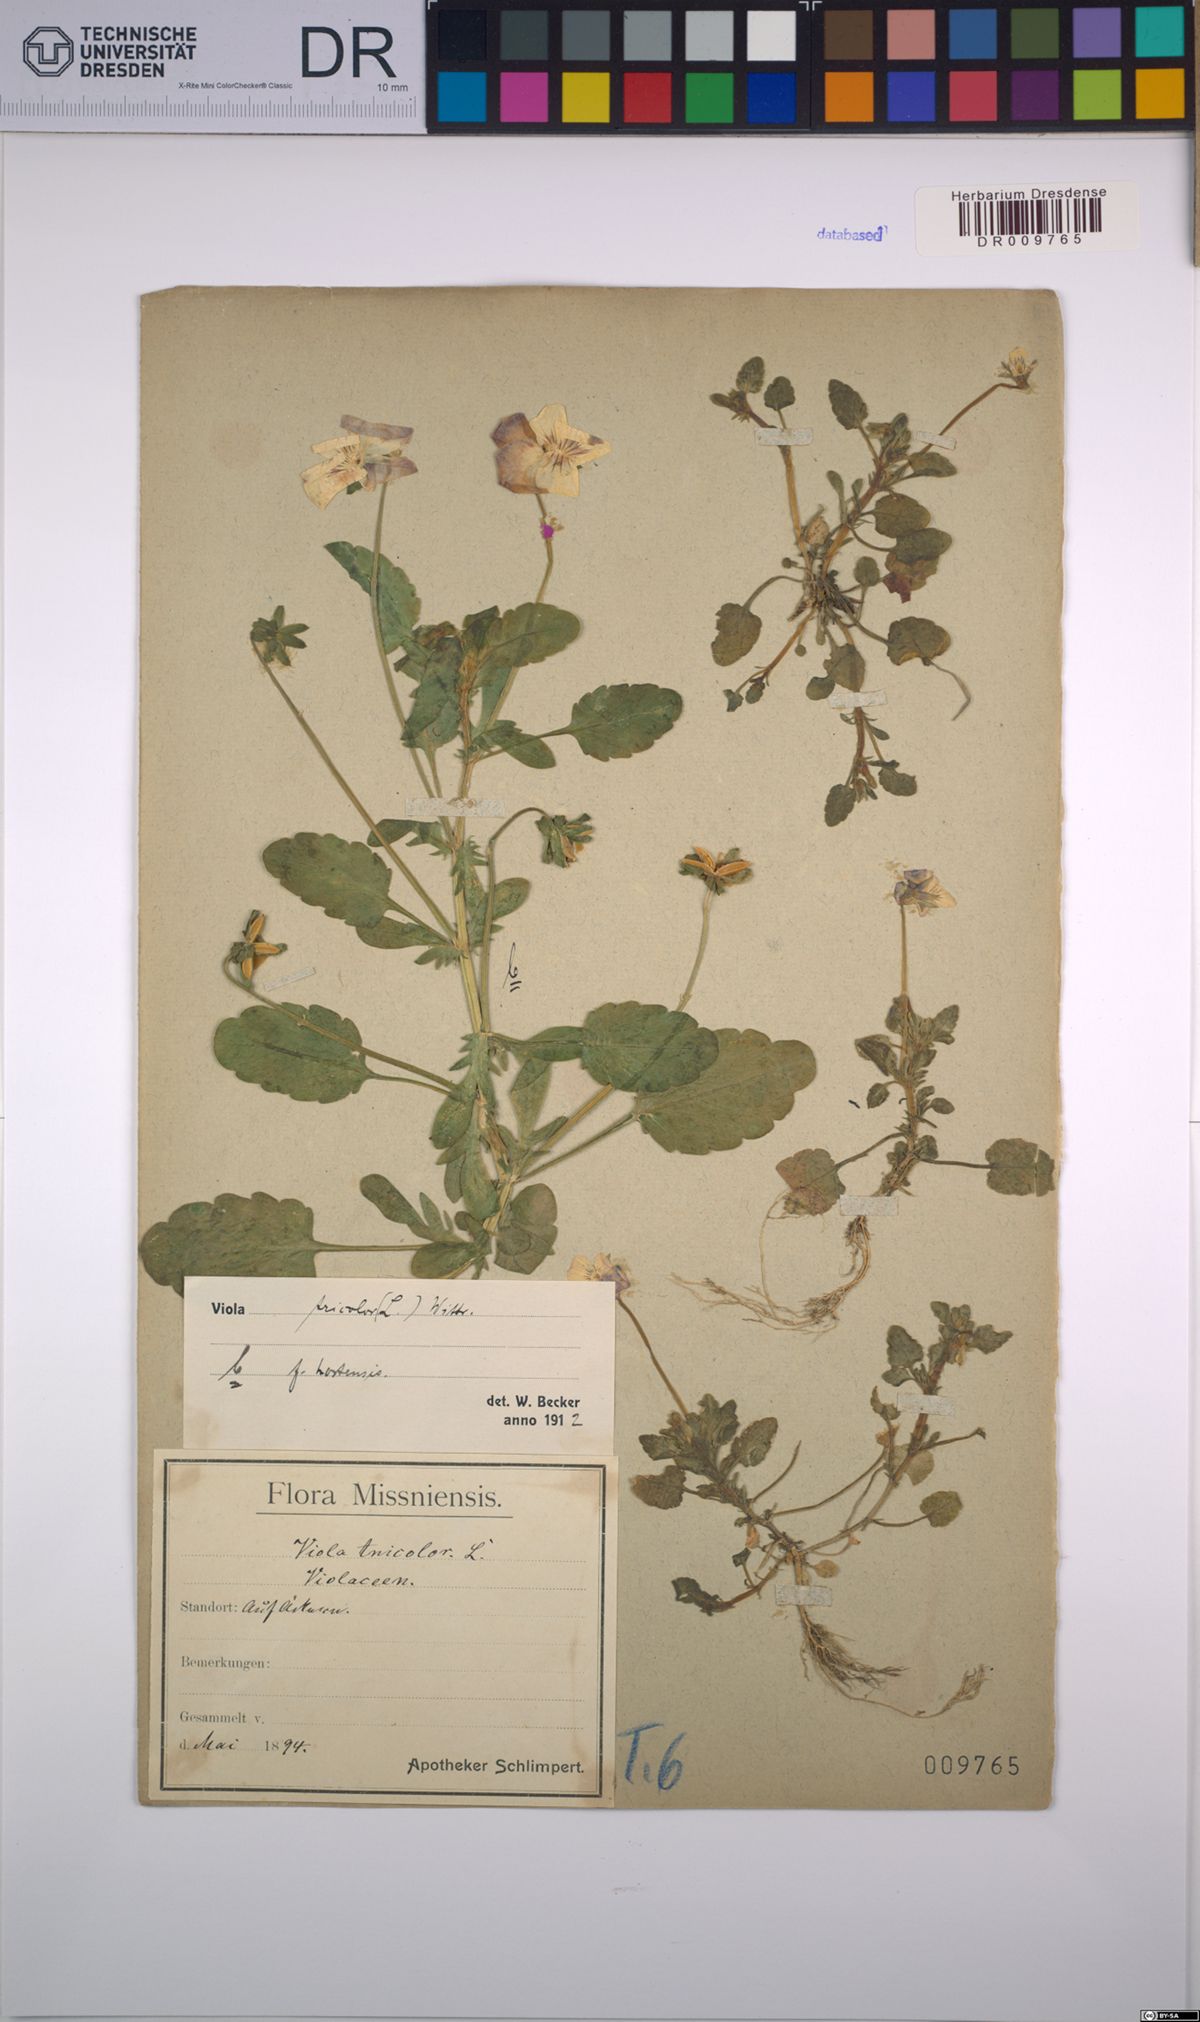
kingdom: Plantae
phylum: Tracheophyta
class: Magnoliopsida
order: Malpighiales
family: Violaceae
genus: Viola
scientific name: Viola tricolor
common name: Pansy
